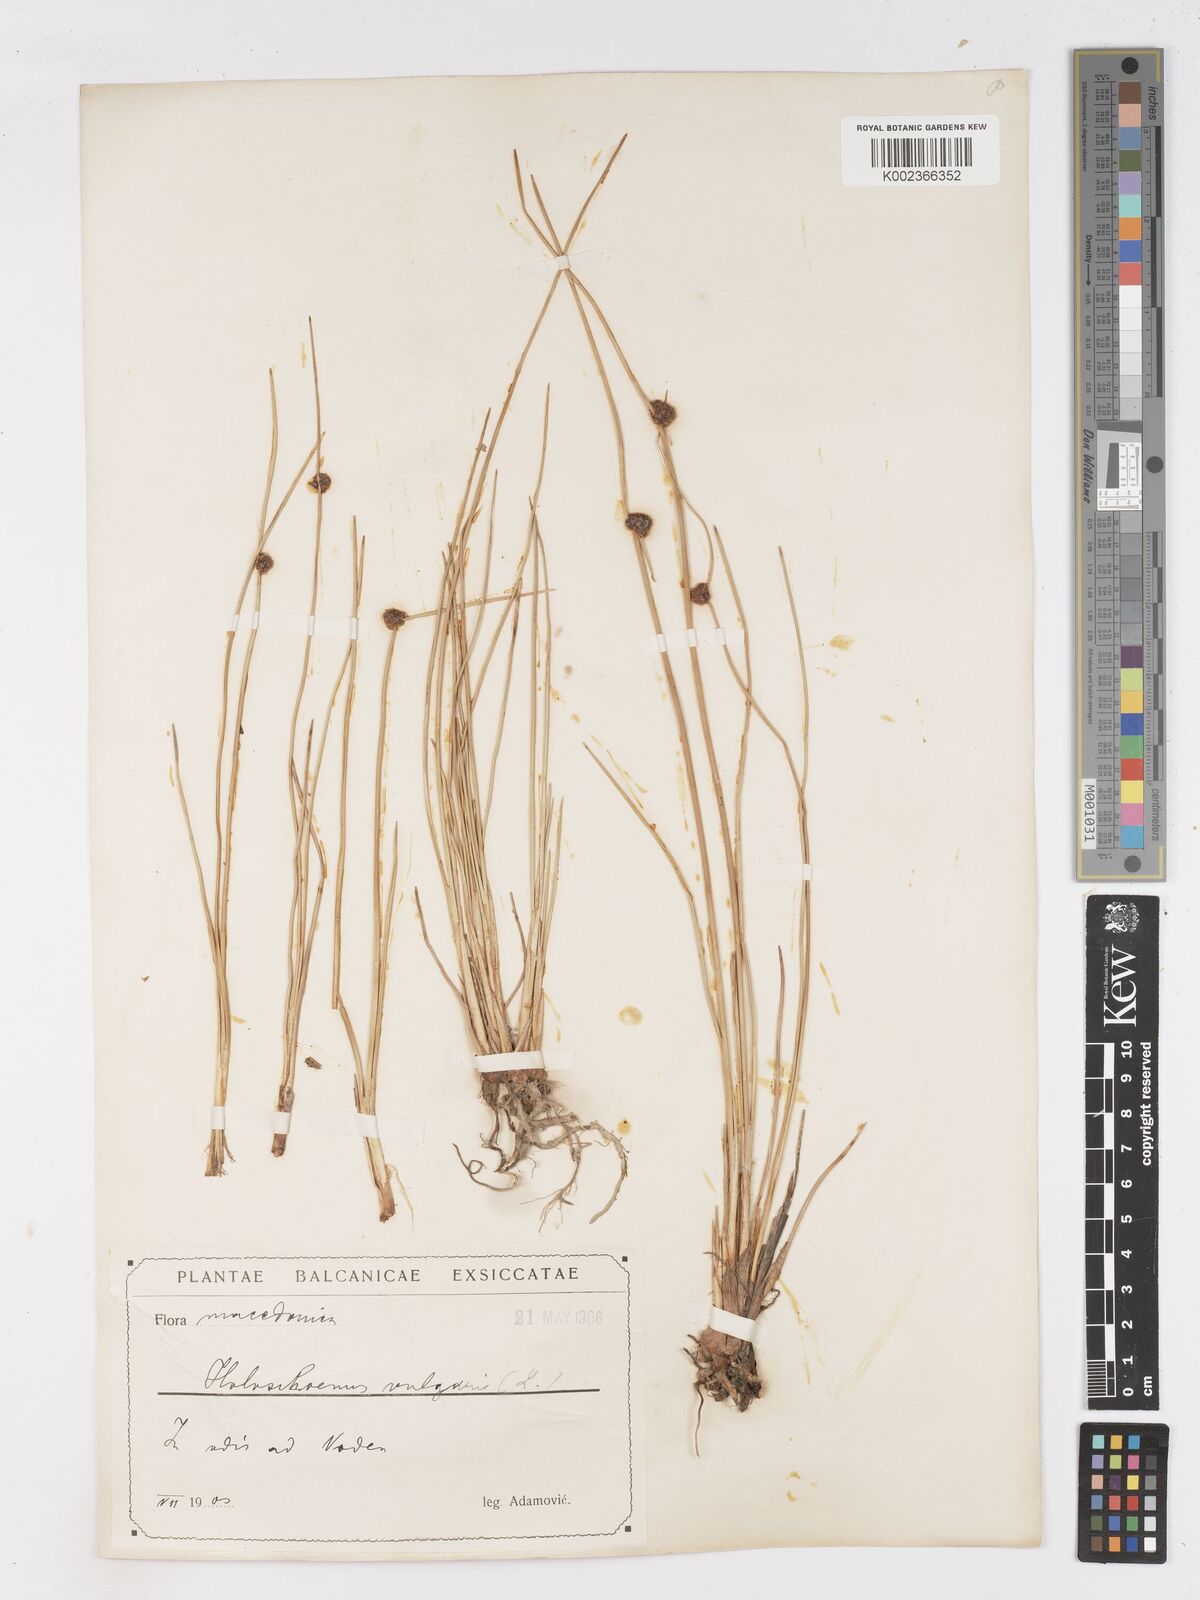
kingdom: Plantae
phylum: Tracheophyta
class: Liliopsida
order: Poales
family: Cyperaceae
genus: Scirpoides
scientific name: Scirpoides holoschoenus
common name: Round-headed club-rush
